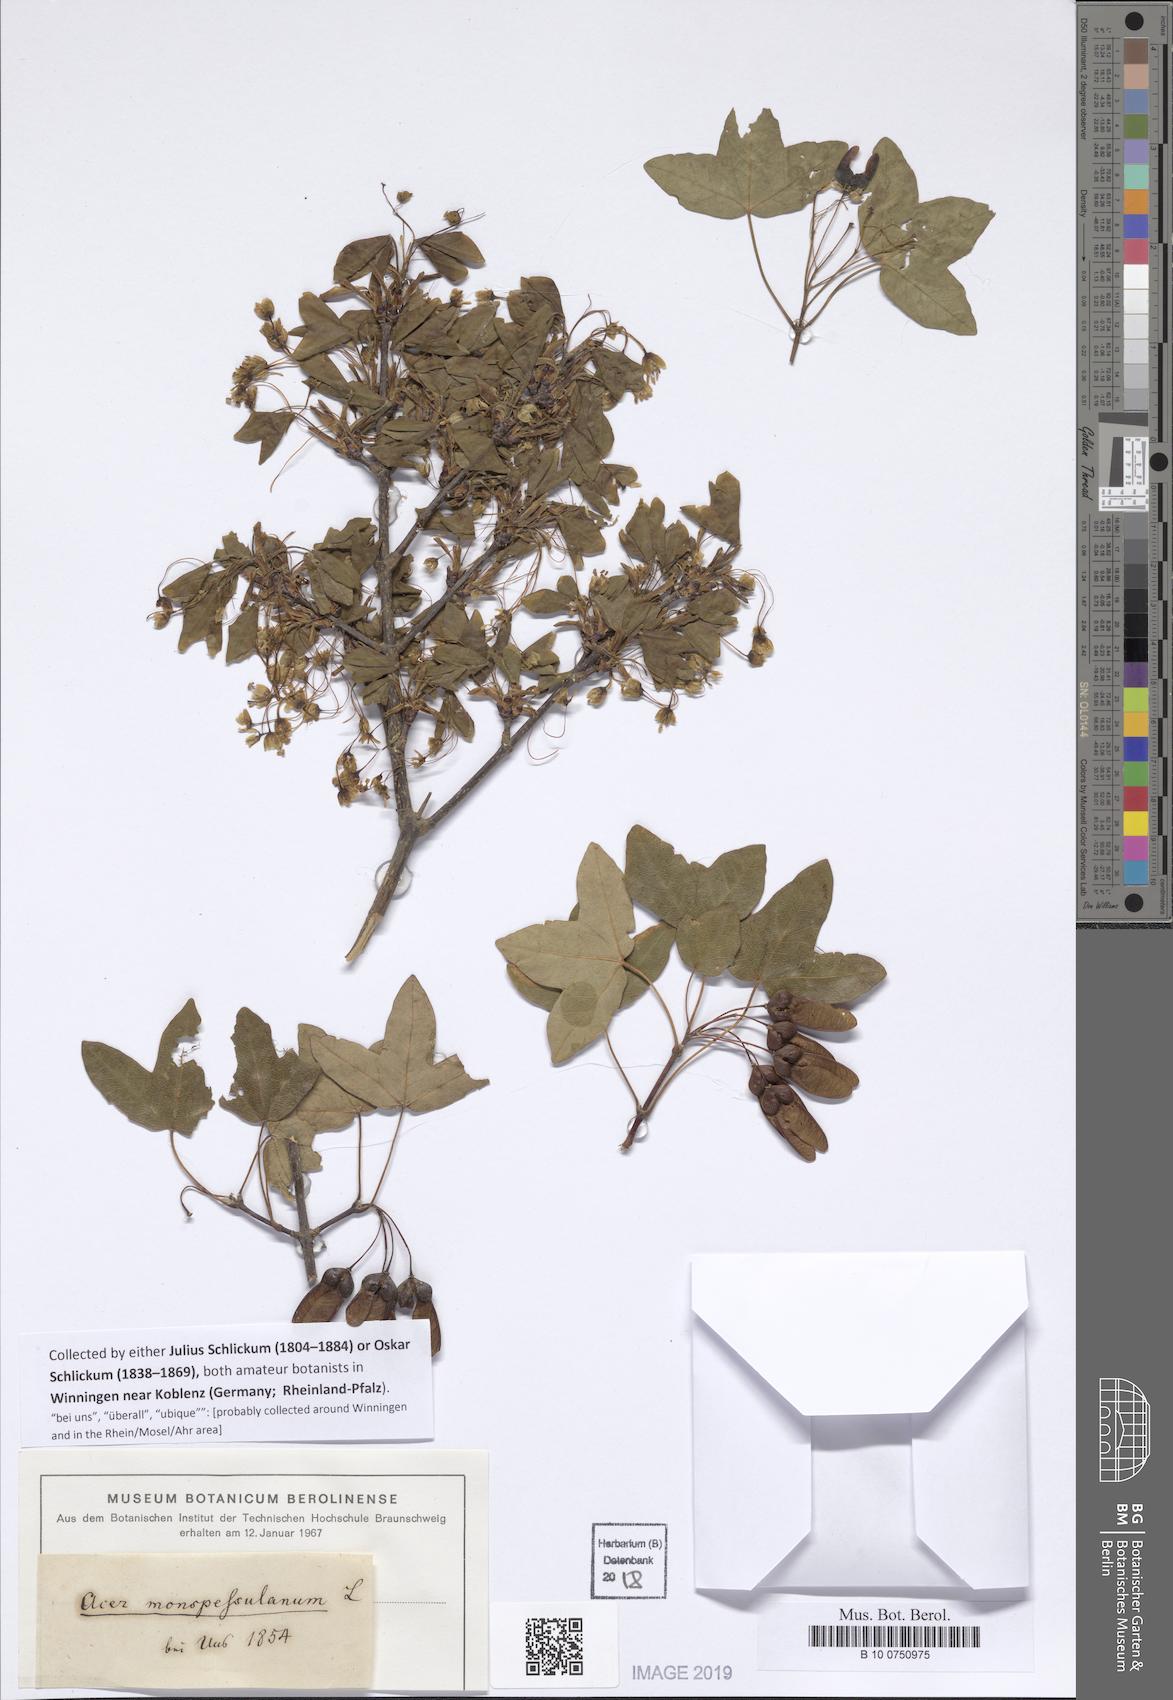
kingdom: Plantae
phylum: Tracheophyta
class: Magnoliopsida
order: Sapindales
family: Sapindaceae
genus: Acer
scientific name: Acer monspessulanum
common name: Montpellier maple
